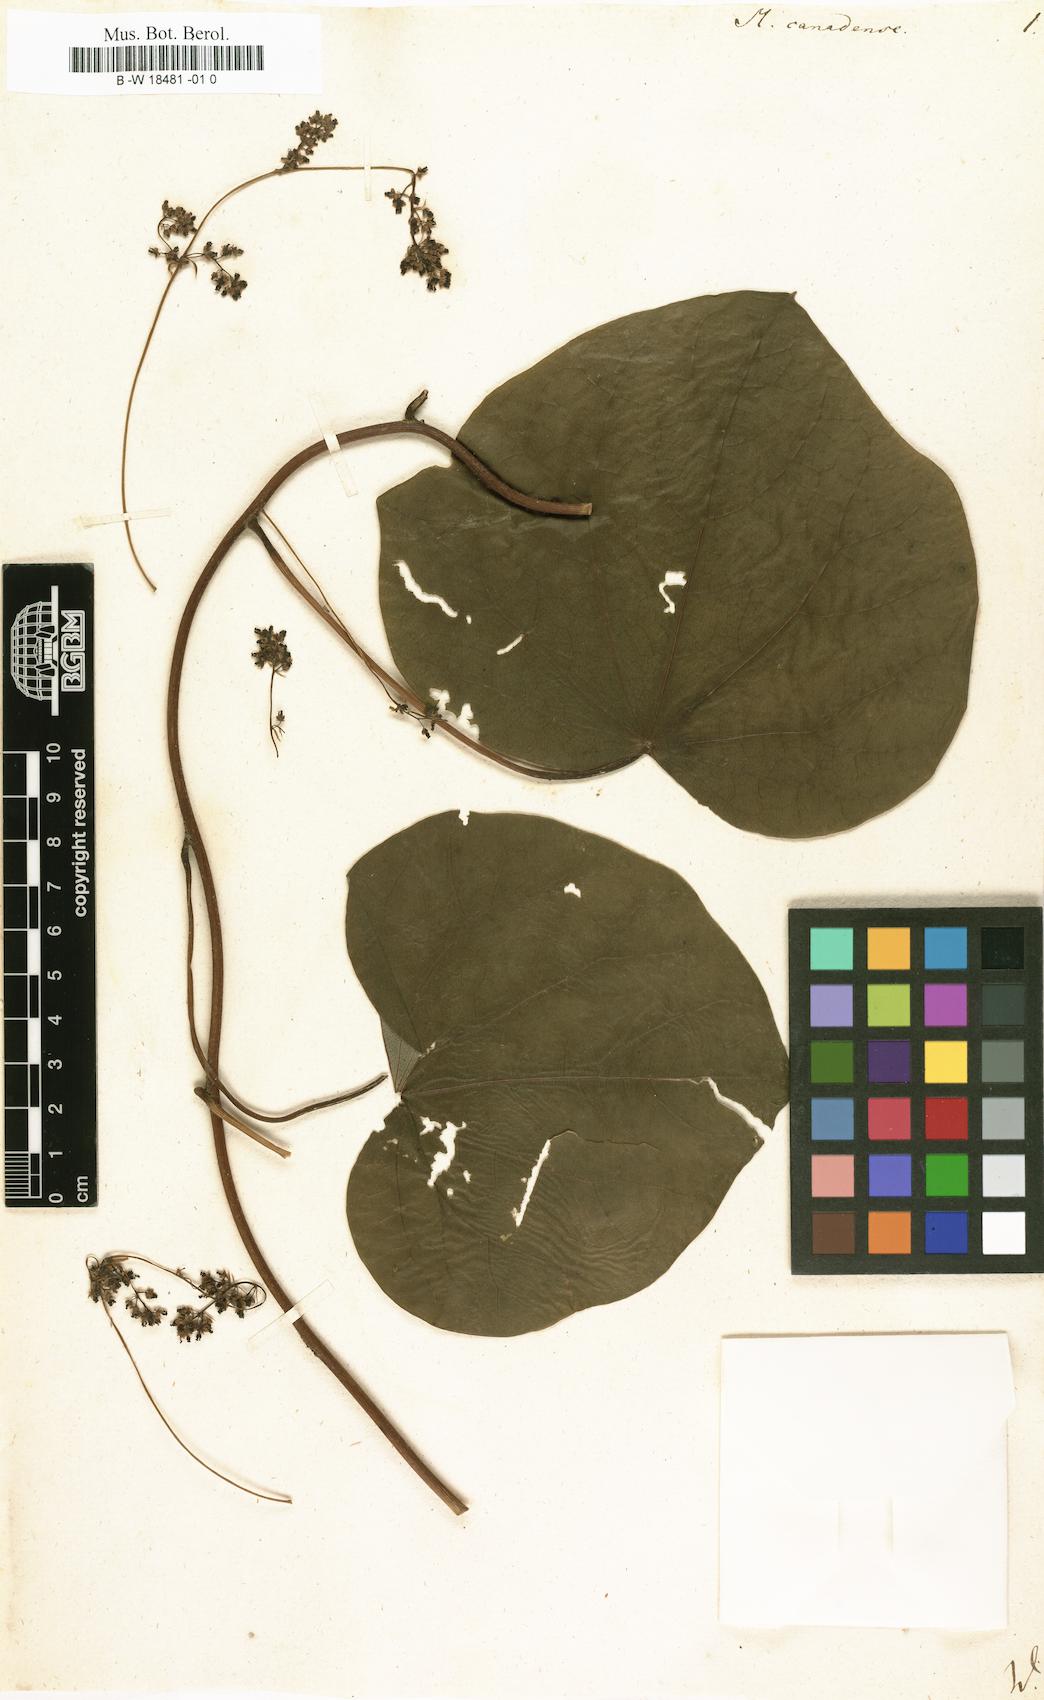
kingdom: Plantae
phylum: Tracheophyta
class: Magnoliopsida
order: Ranunculales
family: Menispermaceae
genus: Menispermum
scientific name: Menispermum canadense
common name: Moonseed
